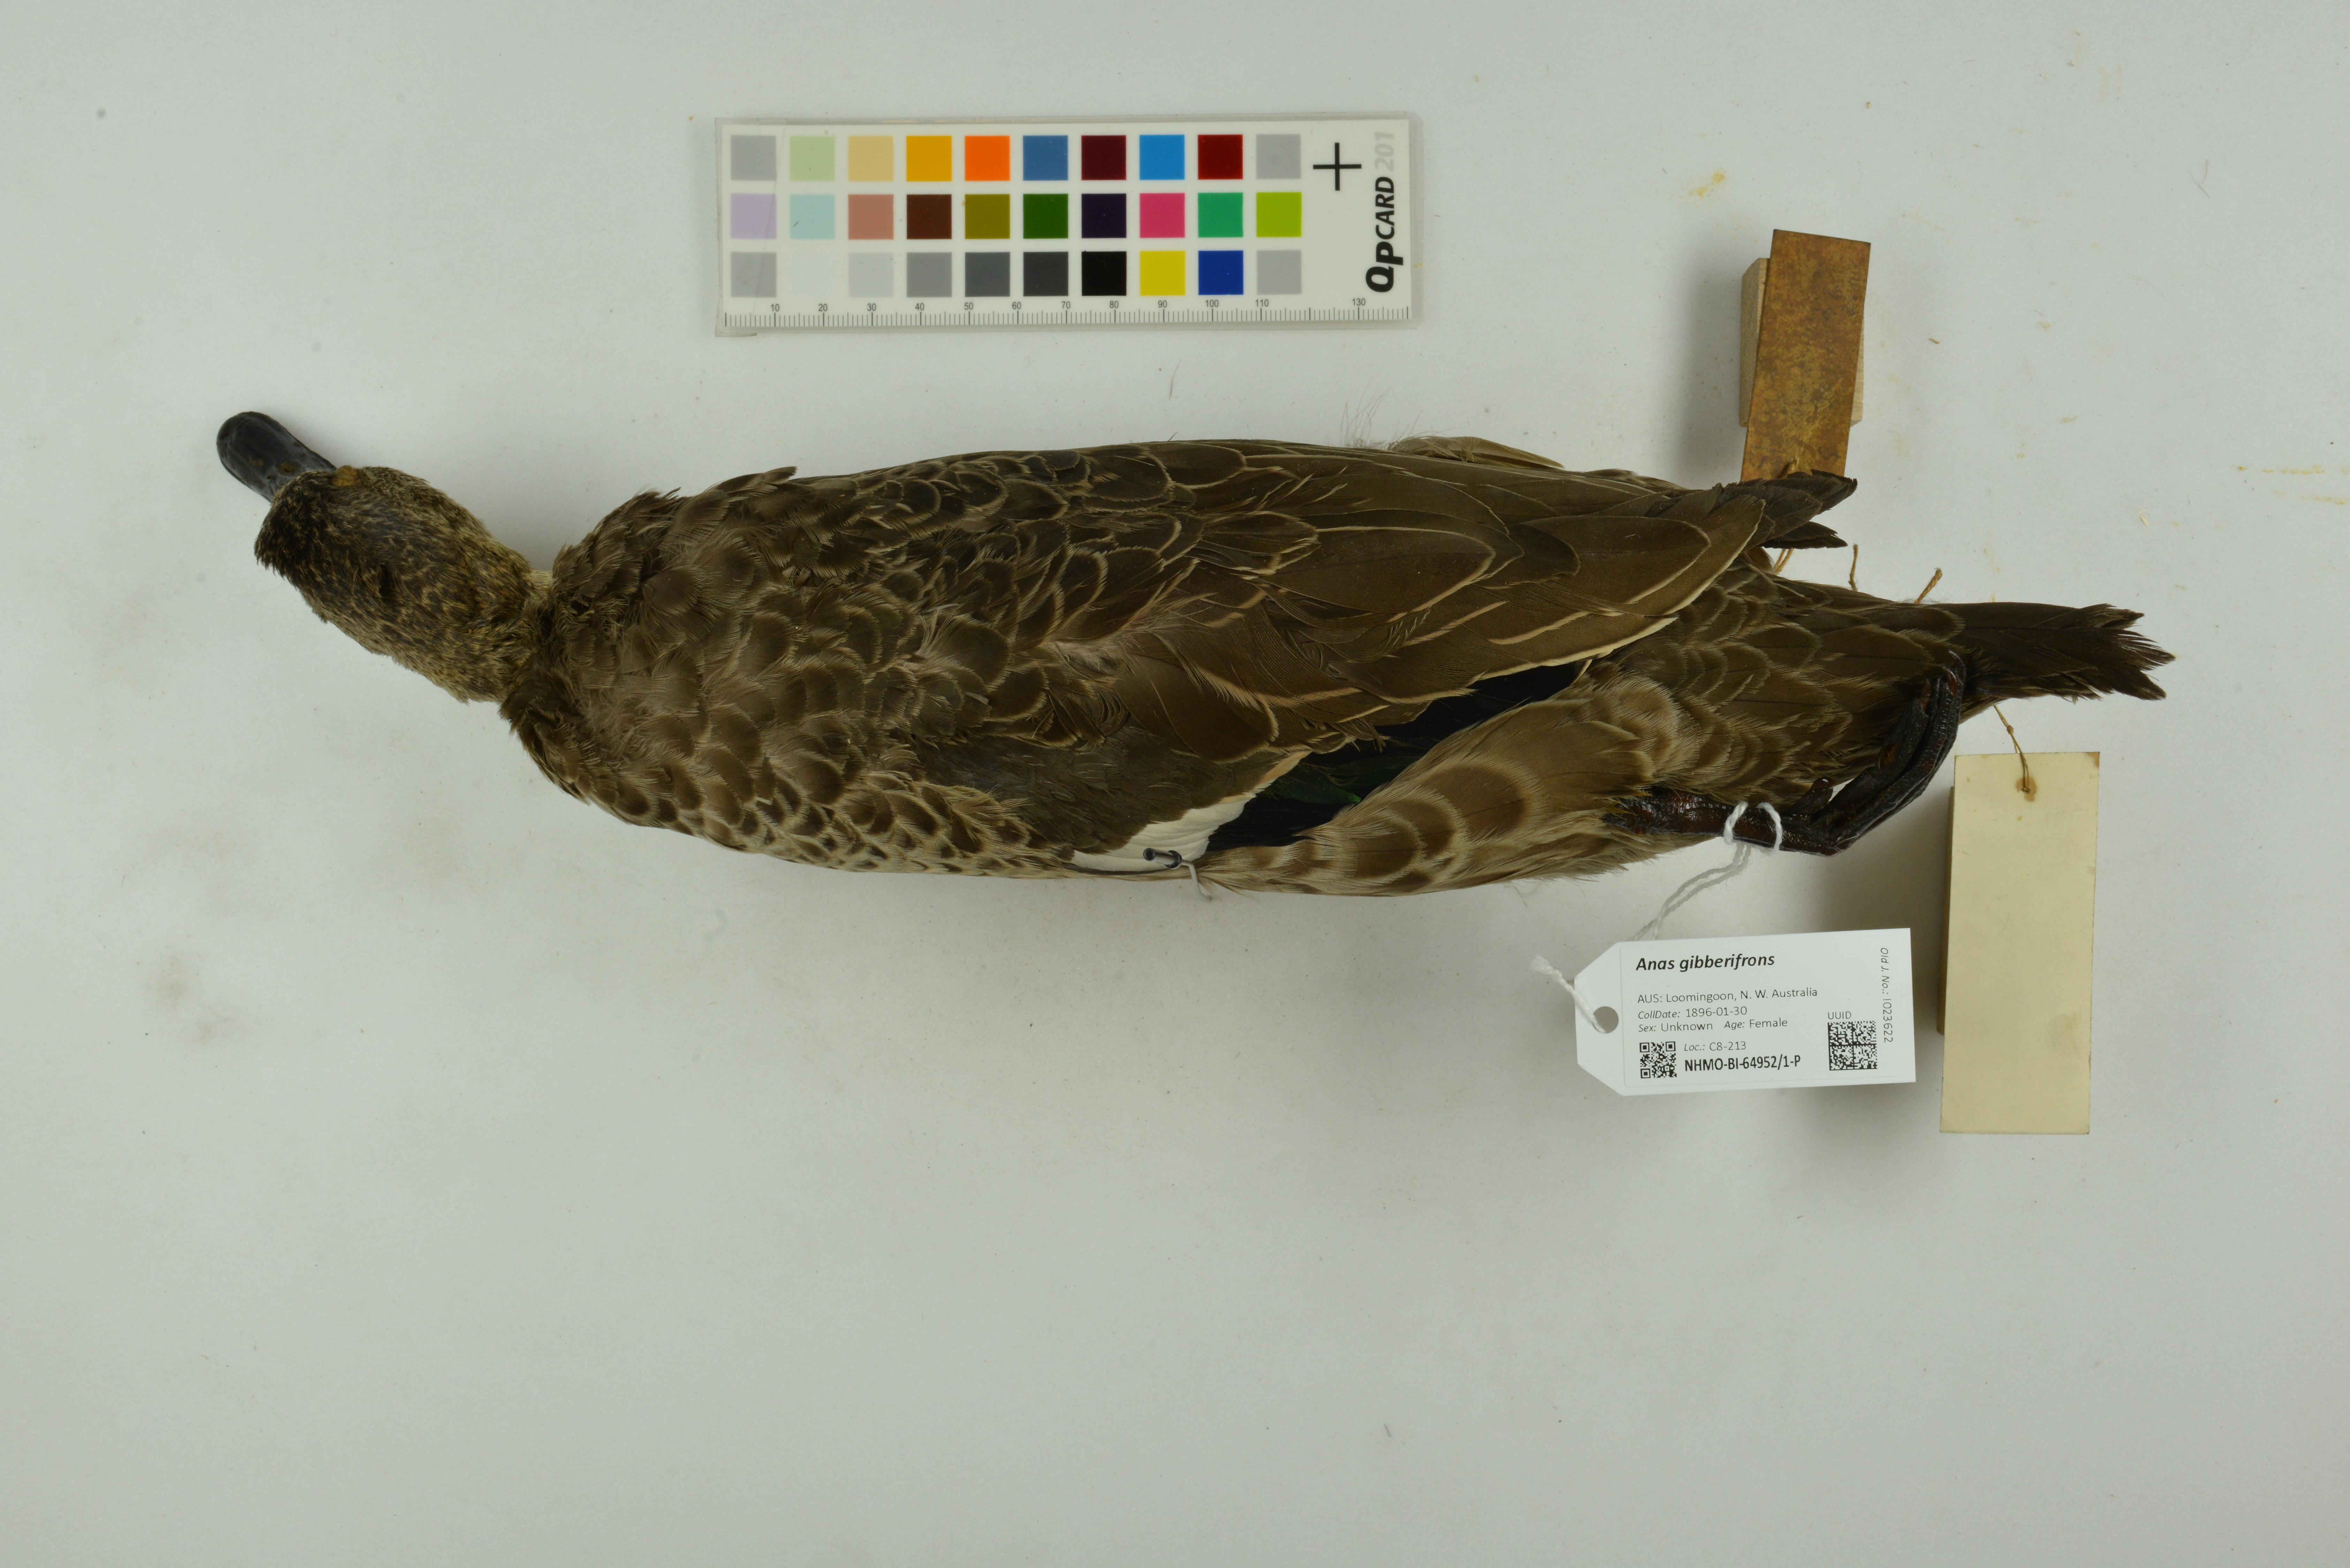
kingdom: Animalia
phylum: Chordata
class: Aves
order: Anseriformes
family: Anatidae
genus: Anas
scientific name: Anas gibberifrons
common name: Sunda teal
